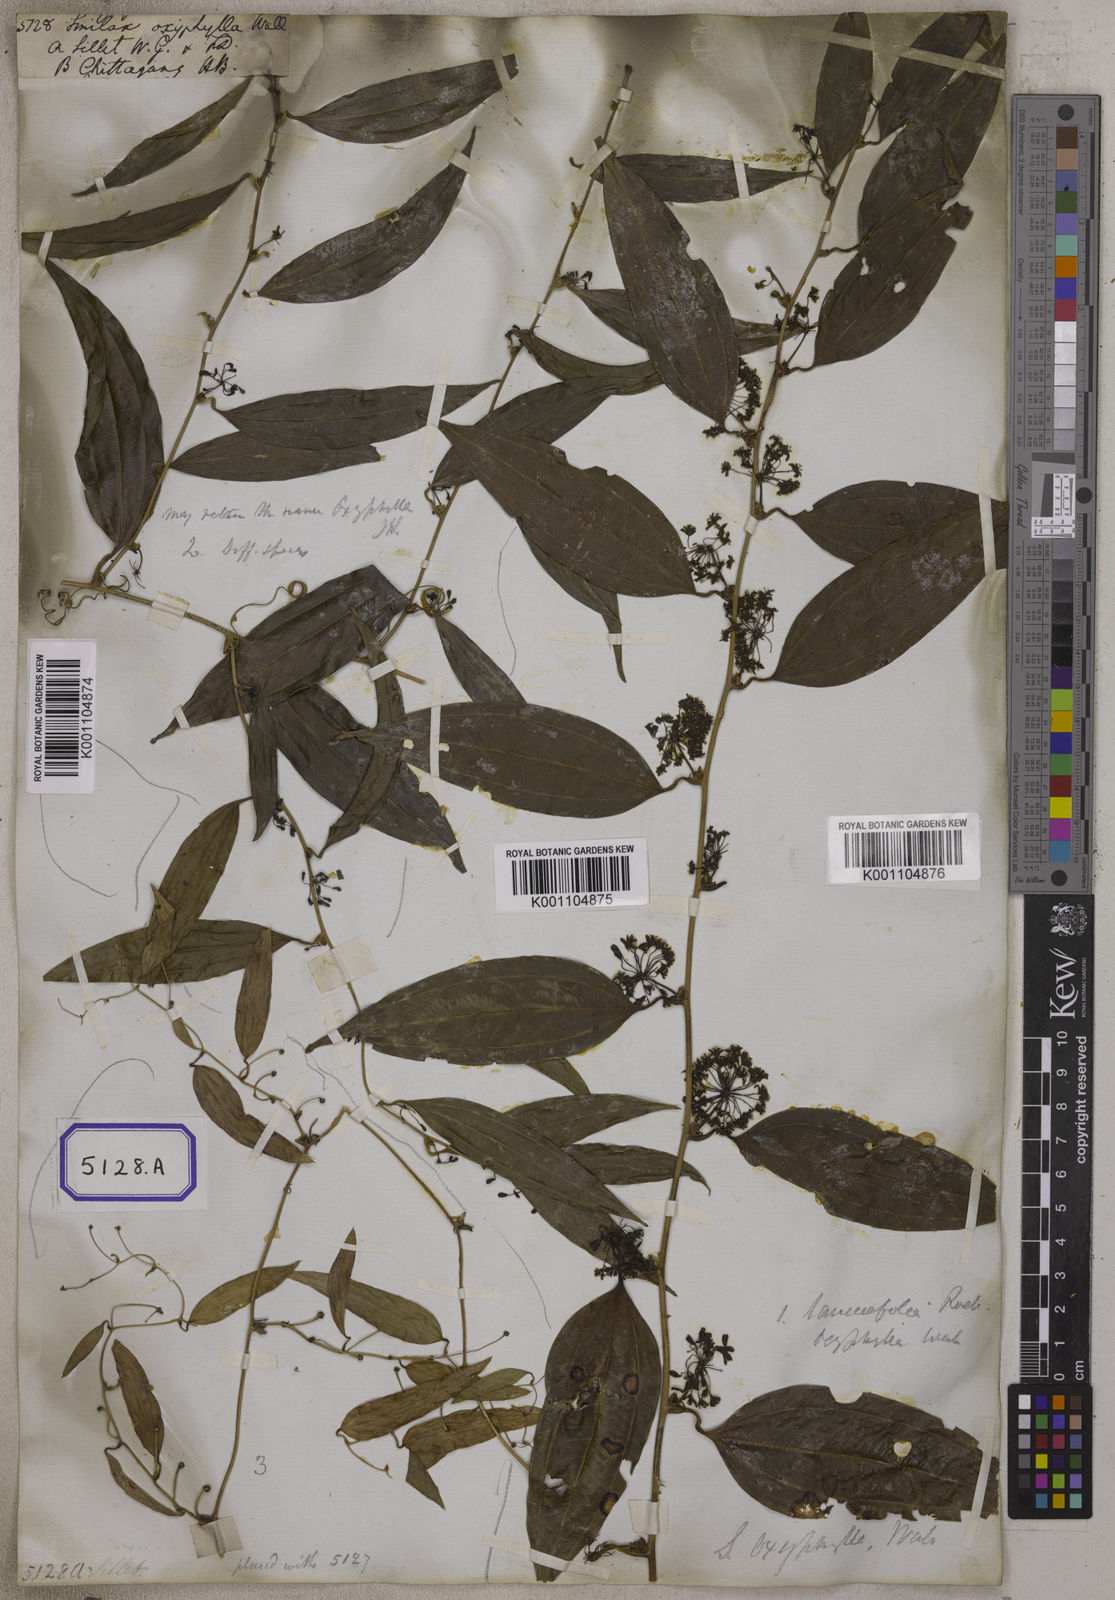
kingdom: Plantae
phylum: Tracheophyta
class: Liliopsida
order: Liliales
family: Smilacaceae
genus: Smilax
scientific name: Smilax
